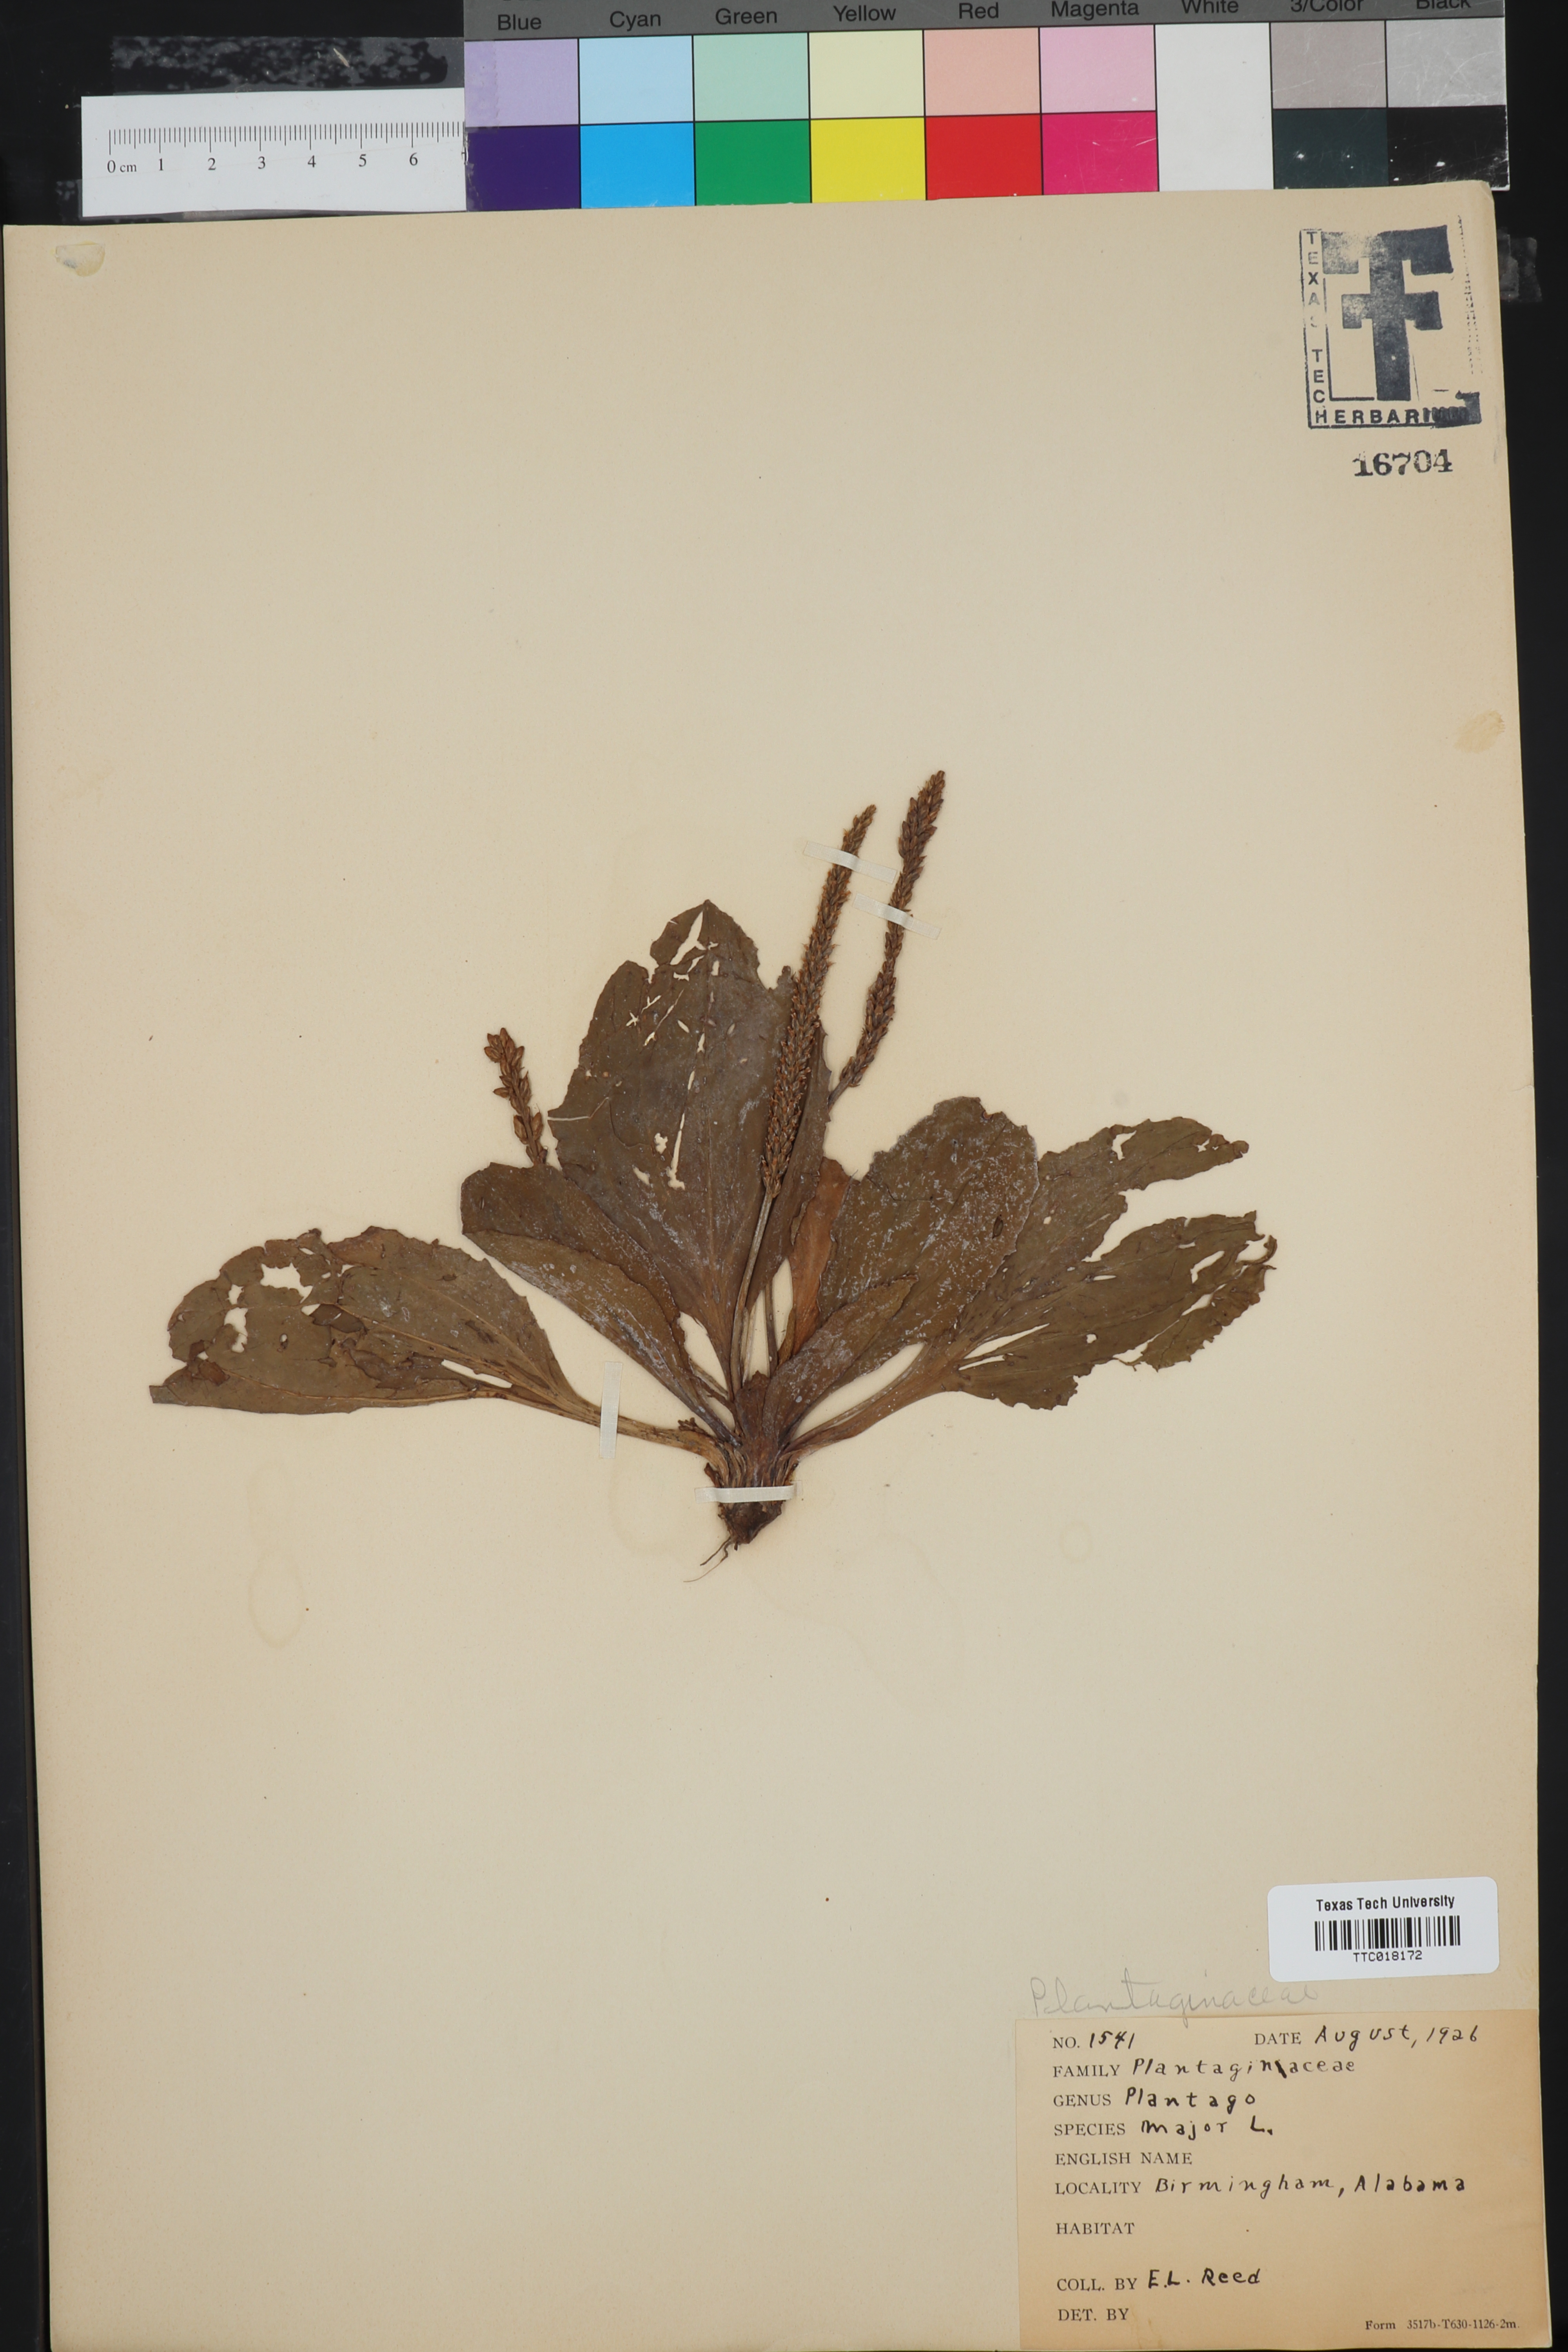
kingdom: Plantae
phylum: Tracheophyta
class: Magnoliopsida
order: Lamiales
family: Plantaginaceae
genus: Plantago
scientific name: Plantago major
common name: Common plantain
